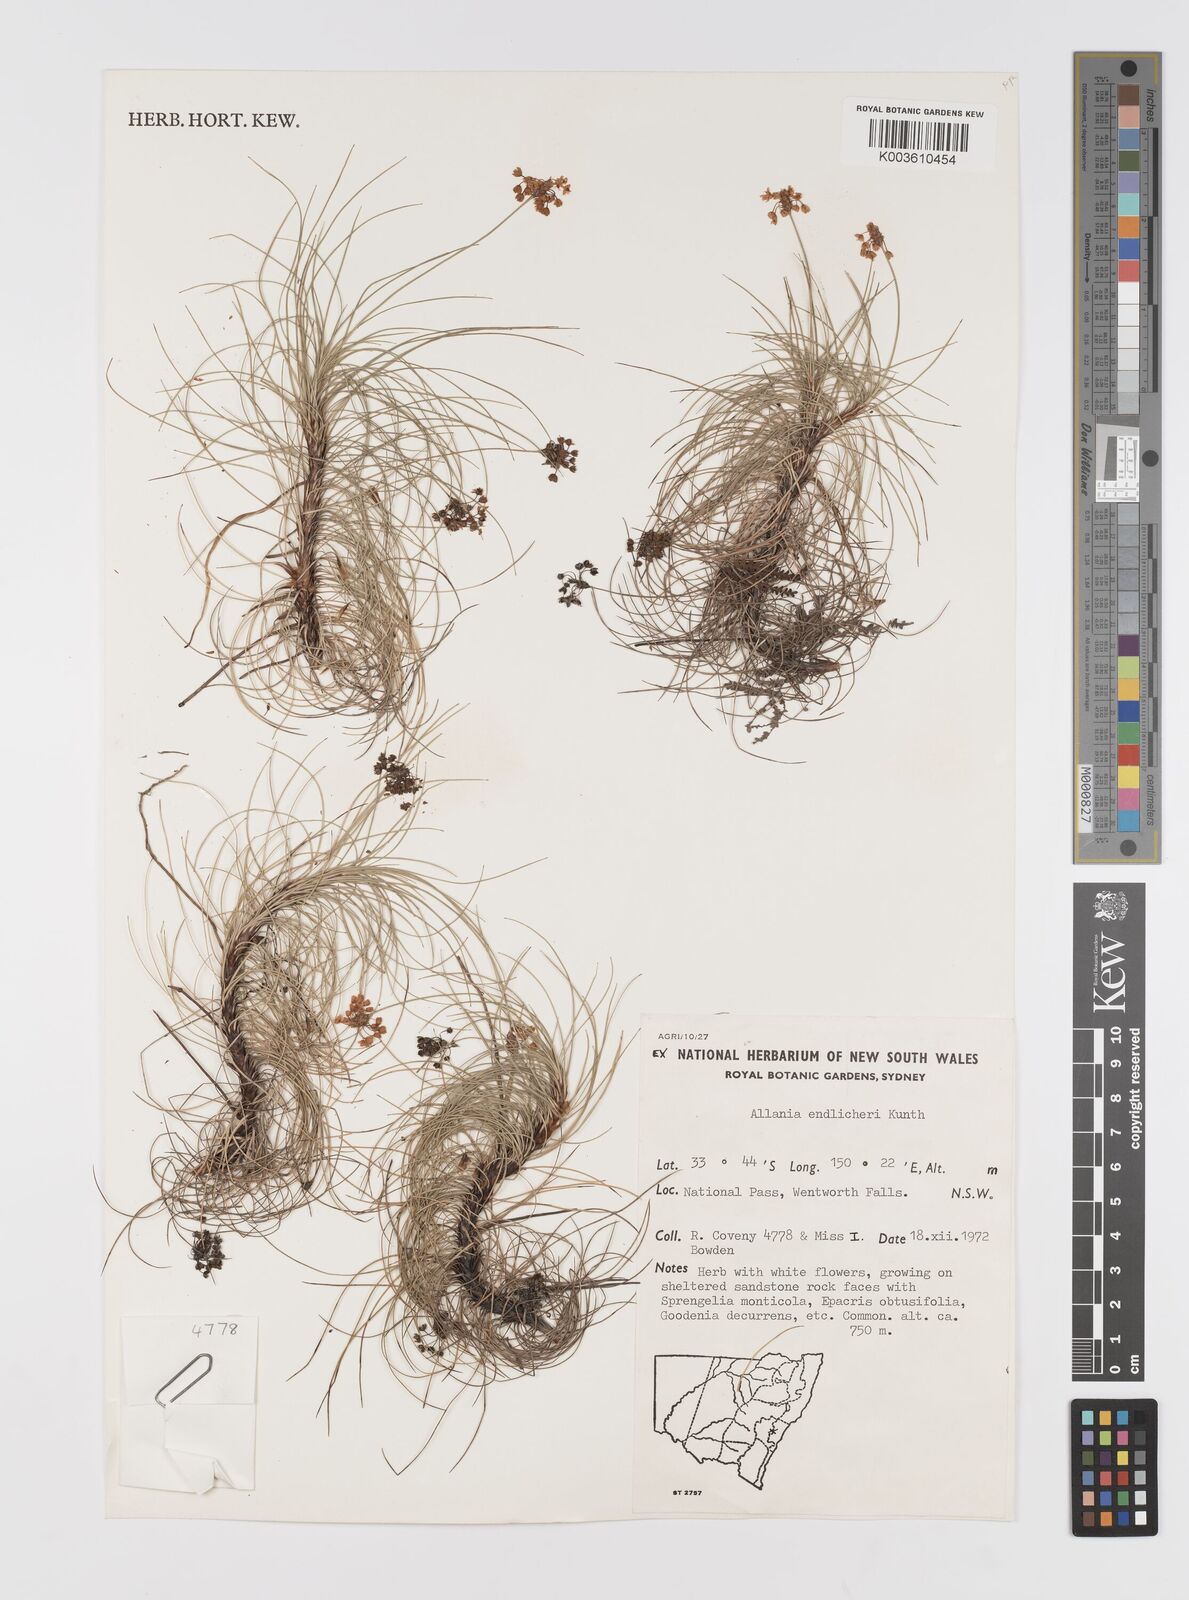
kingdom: Plantae
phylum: Tracheophyta
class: Liliopsida
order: Asparagales
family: Boryaceae
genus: Alania
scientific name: Alania cunninghamii
